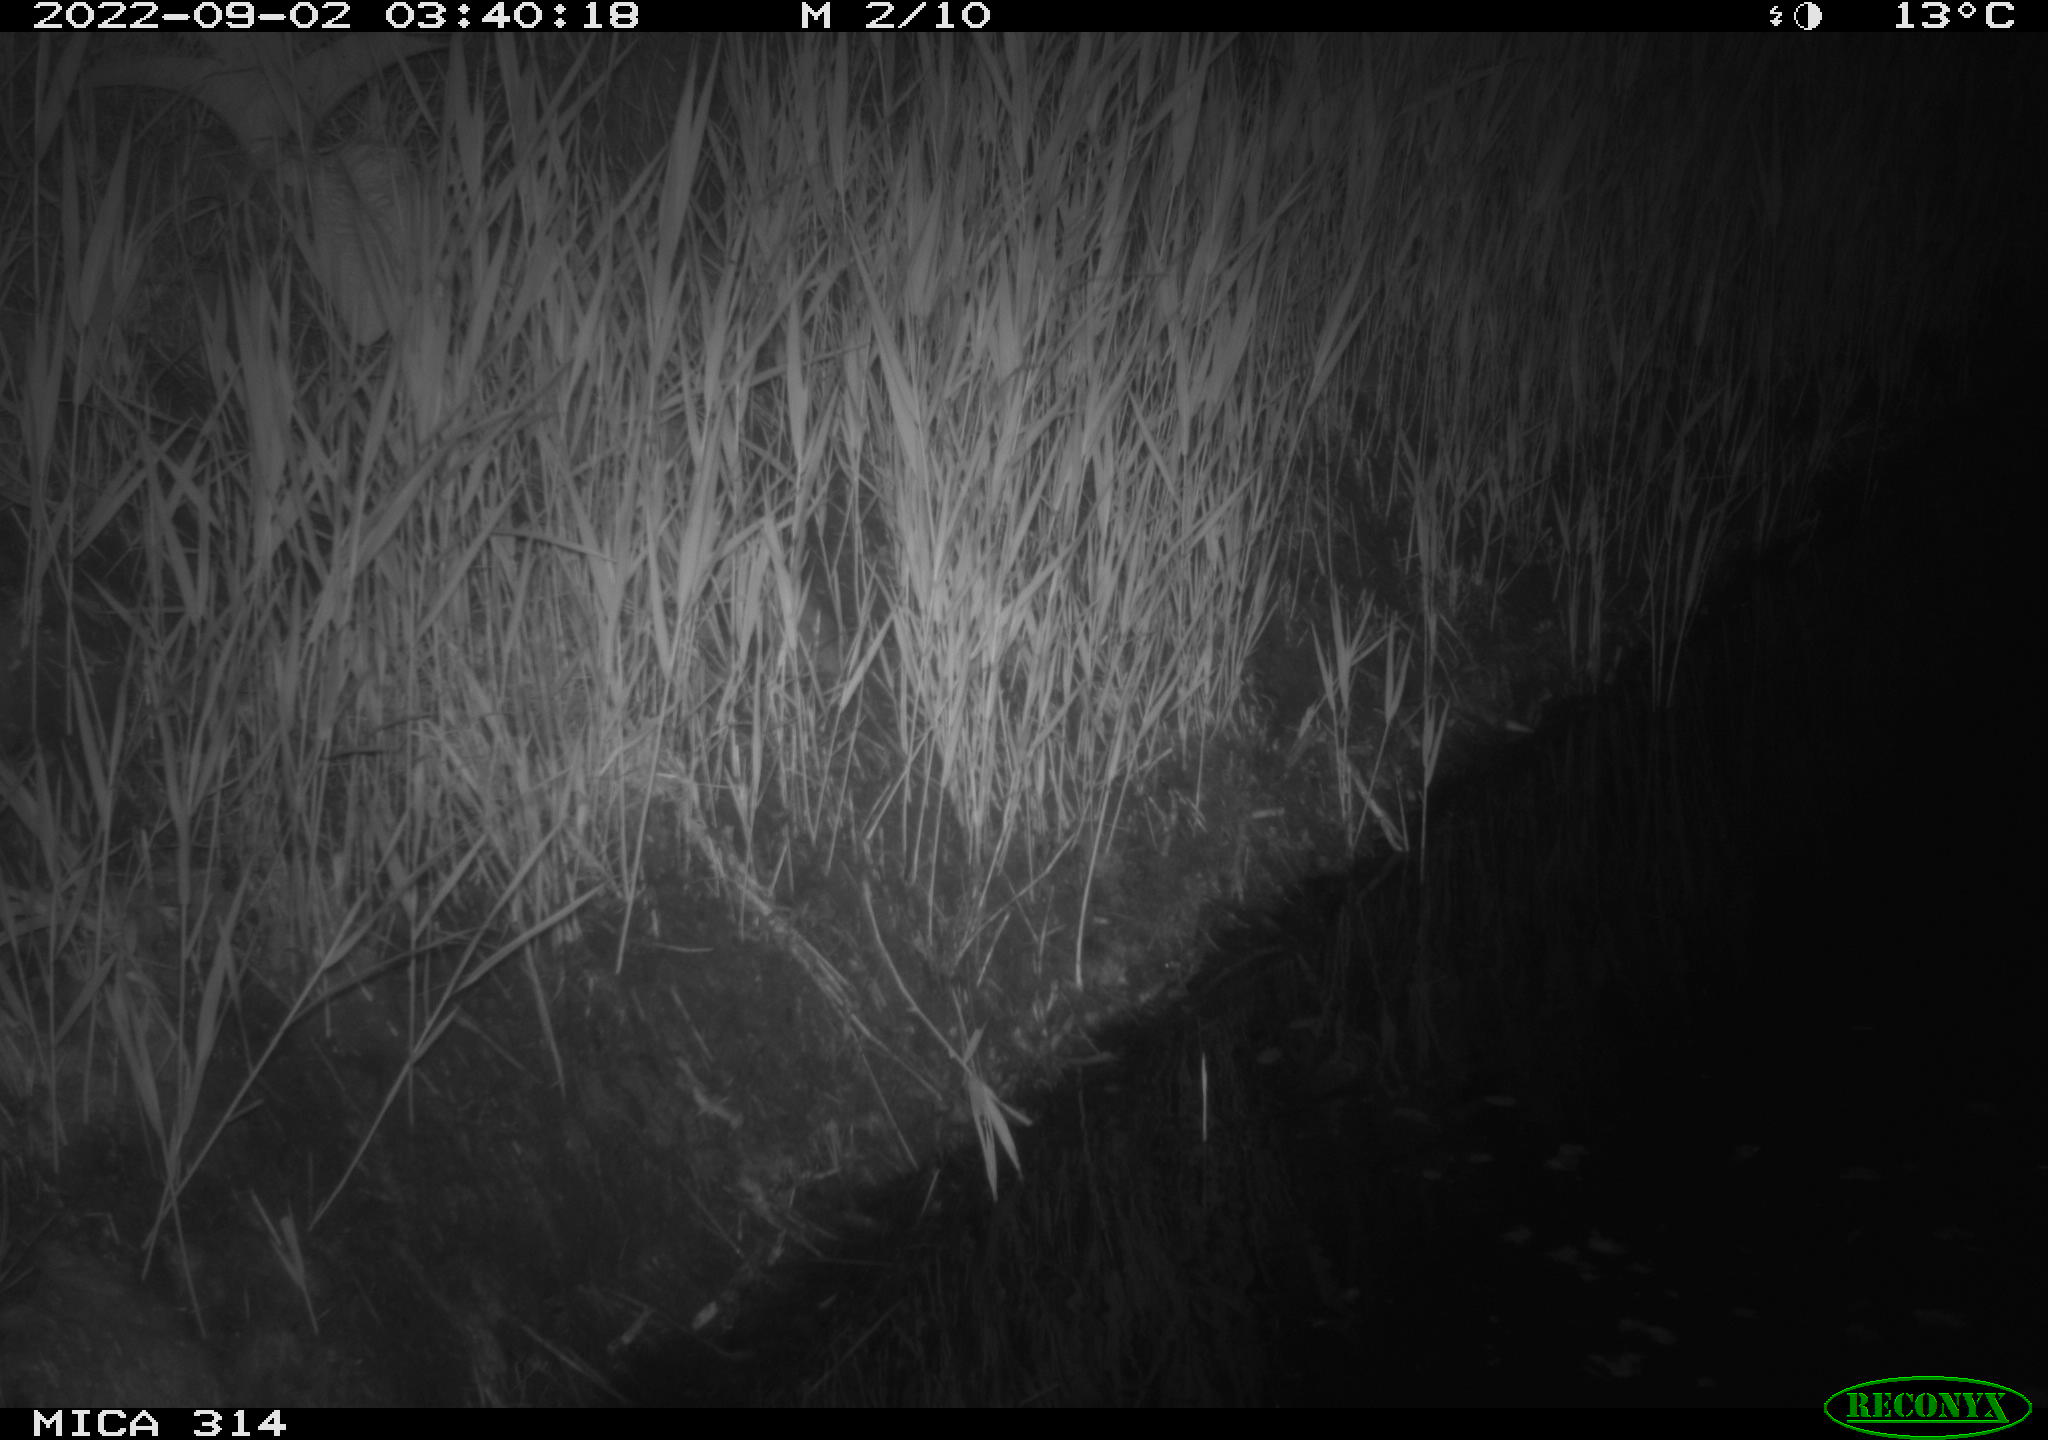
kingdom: Animalia
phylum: Chordata
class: Mammalia
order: Rodentia
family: Muridae
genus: Rattus
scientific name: Rattus norvegicus
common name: Brown rat
